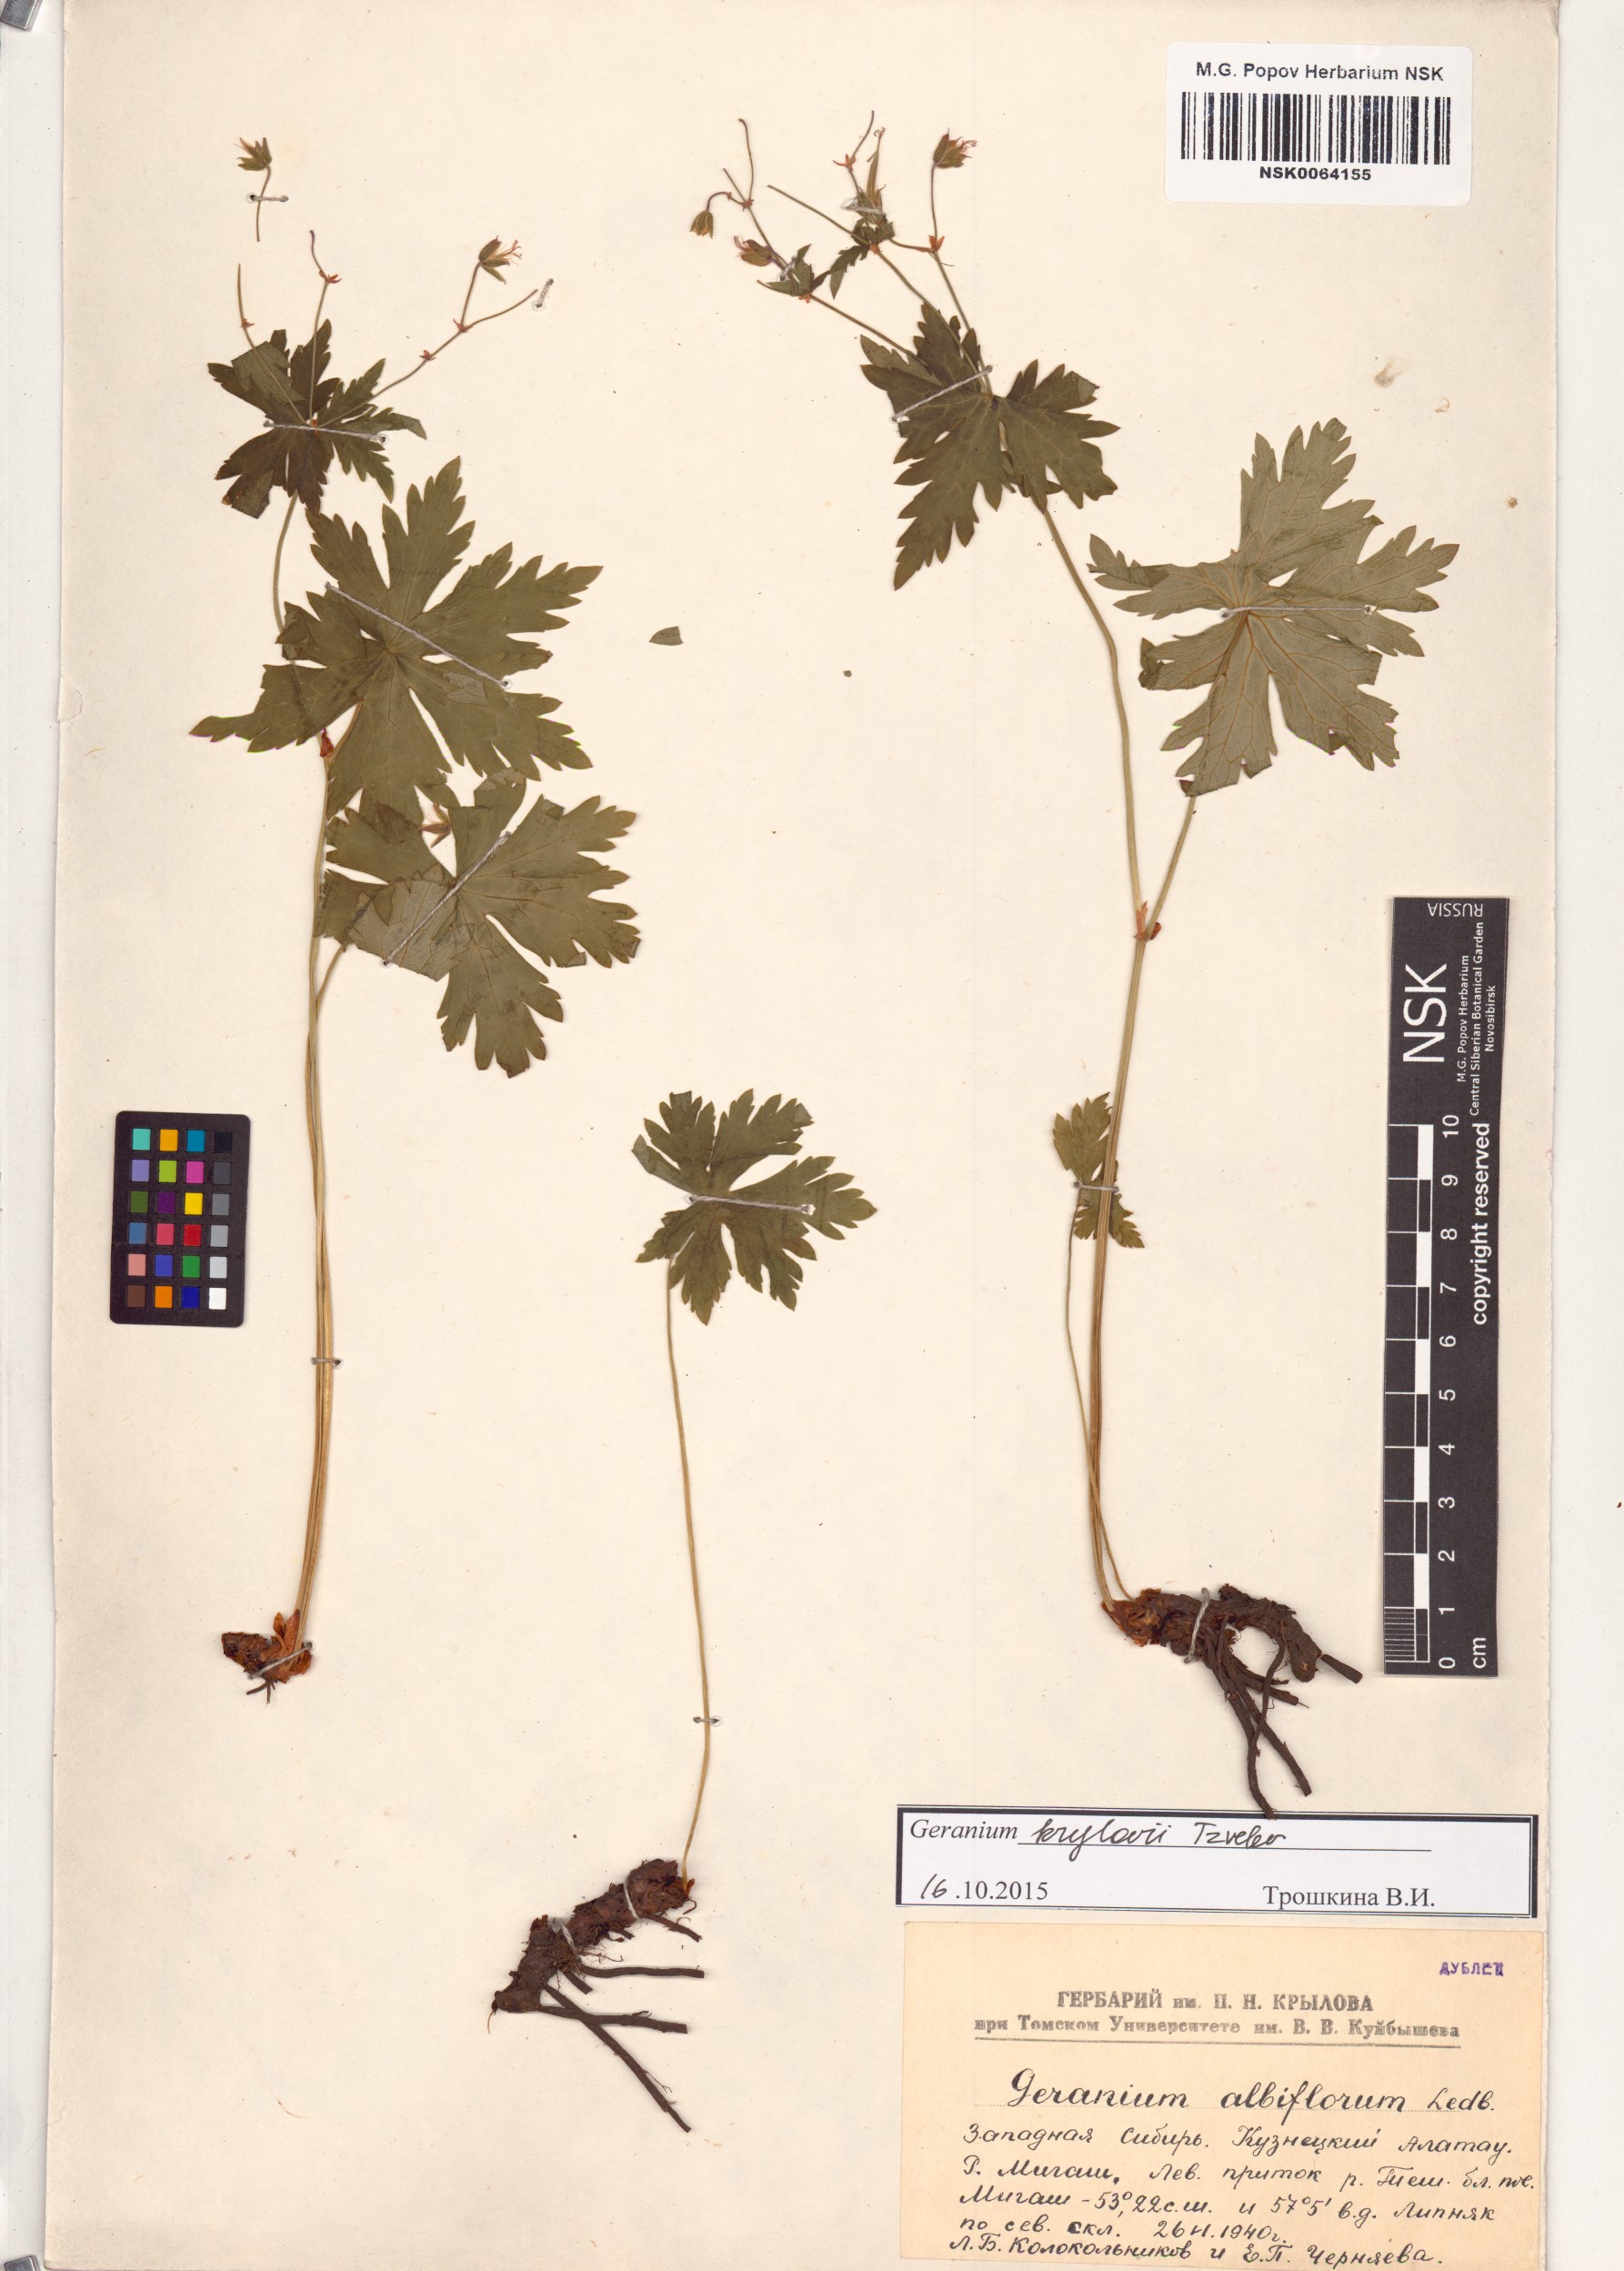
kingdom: Plantae
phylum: Tracheophyta
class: Magnoliopsida
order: Geraniales
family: Geraniaceae
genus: Geranium
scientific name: Geranium sylvaticum
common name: Wood crane's-bill
